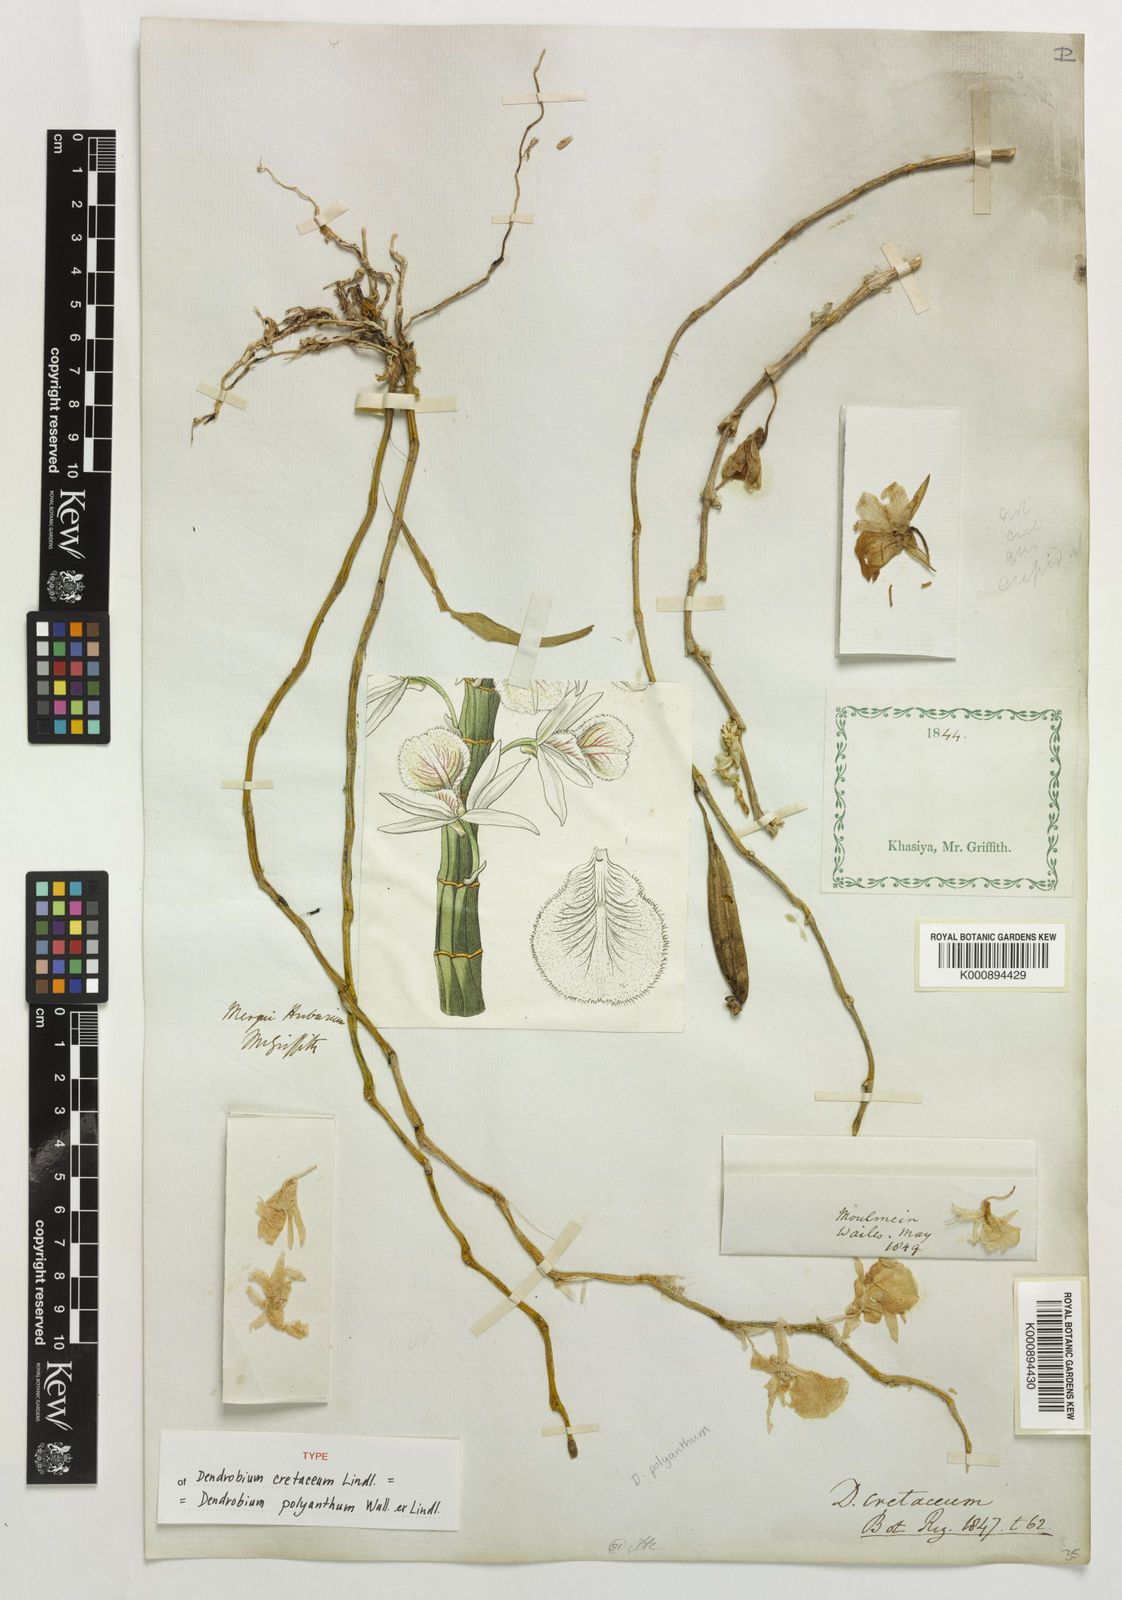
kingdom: Plantae
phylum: Tracheophyta
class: Liliopsida
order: Asparagales
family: Orchidaceae
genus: Dendrobium
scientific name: Dendrobium polyanthum
